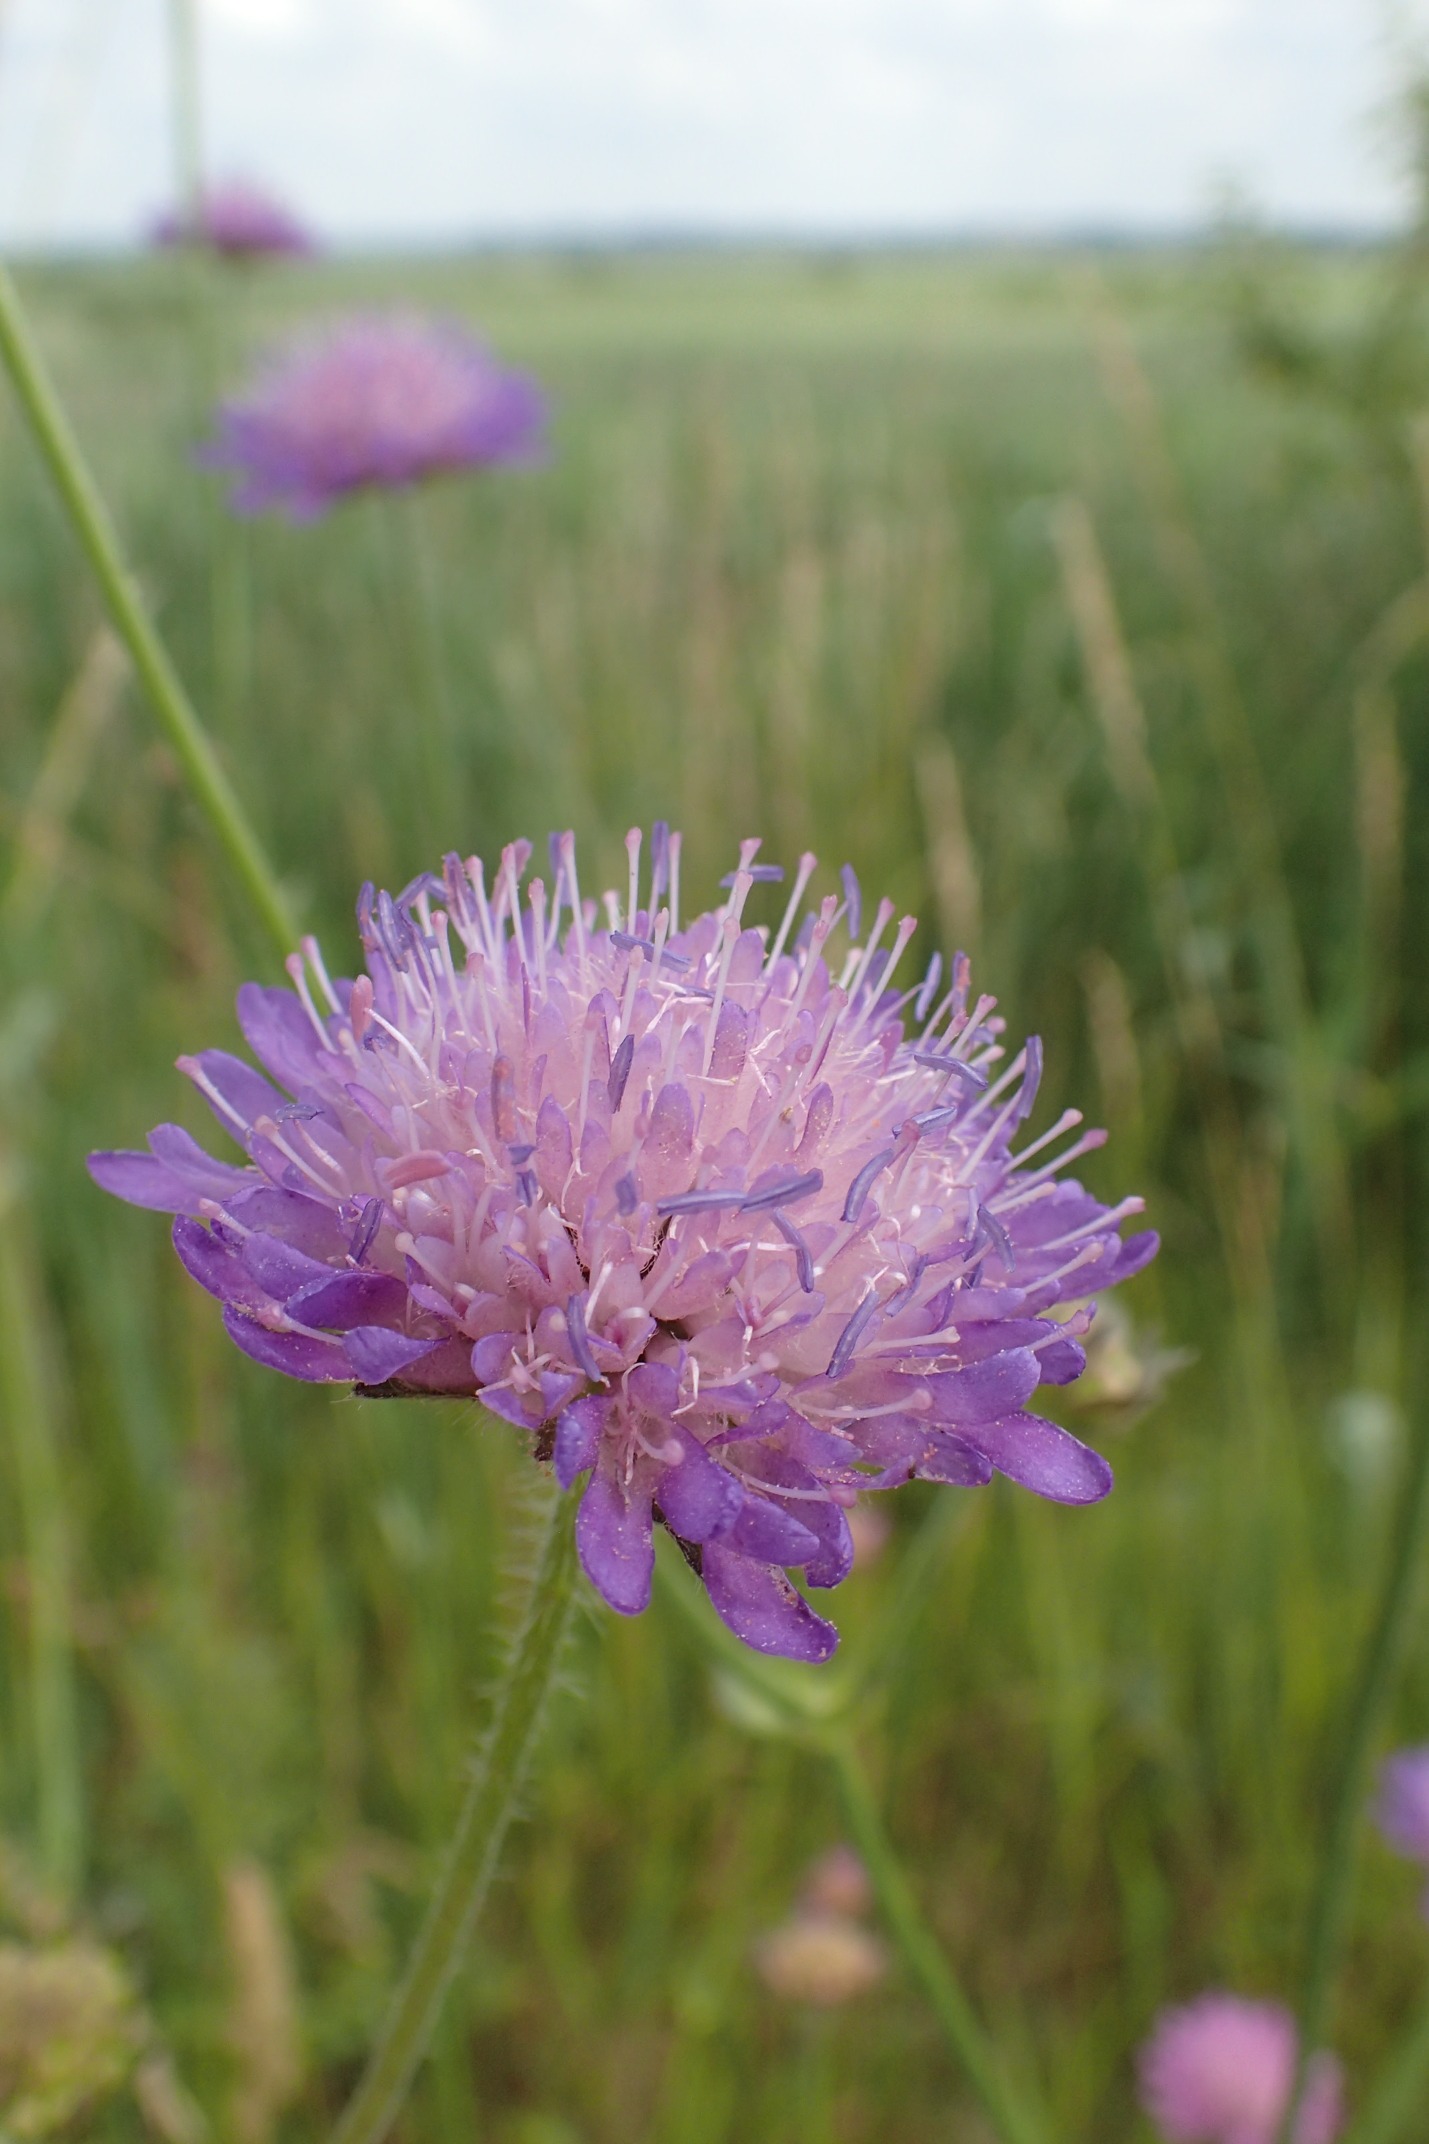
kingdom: Plantae
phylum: Tracheophyta
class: Magnoliopsida
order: Dipsacales
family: Caprifoliaceae
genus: Knautia
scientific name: Knautia arvensis
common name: Blåhat
